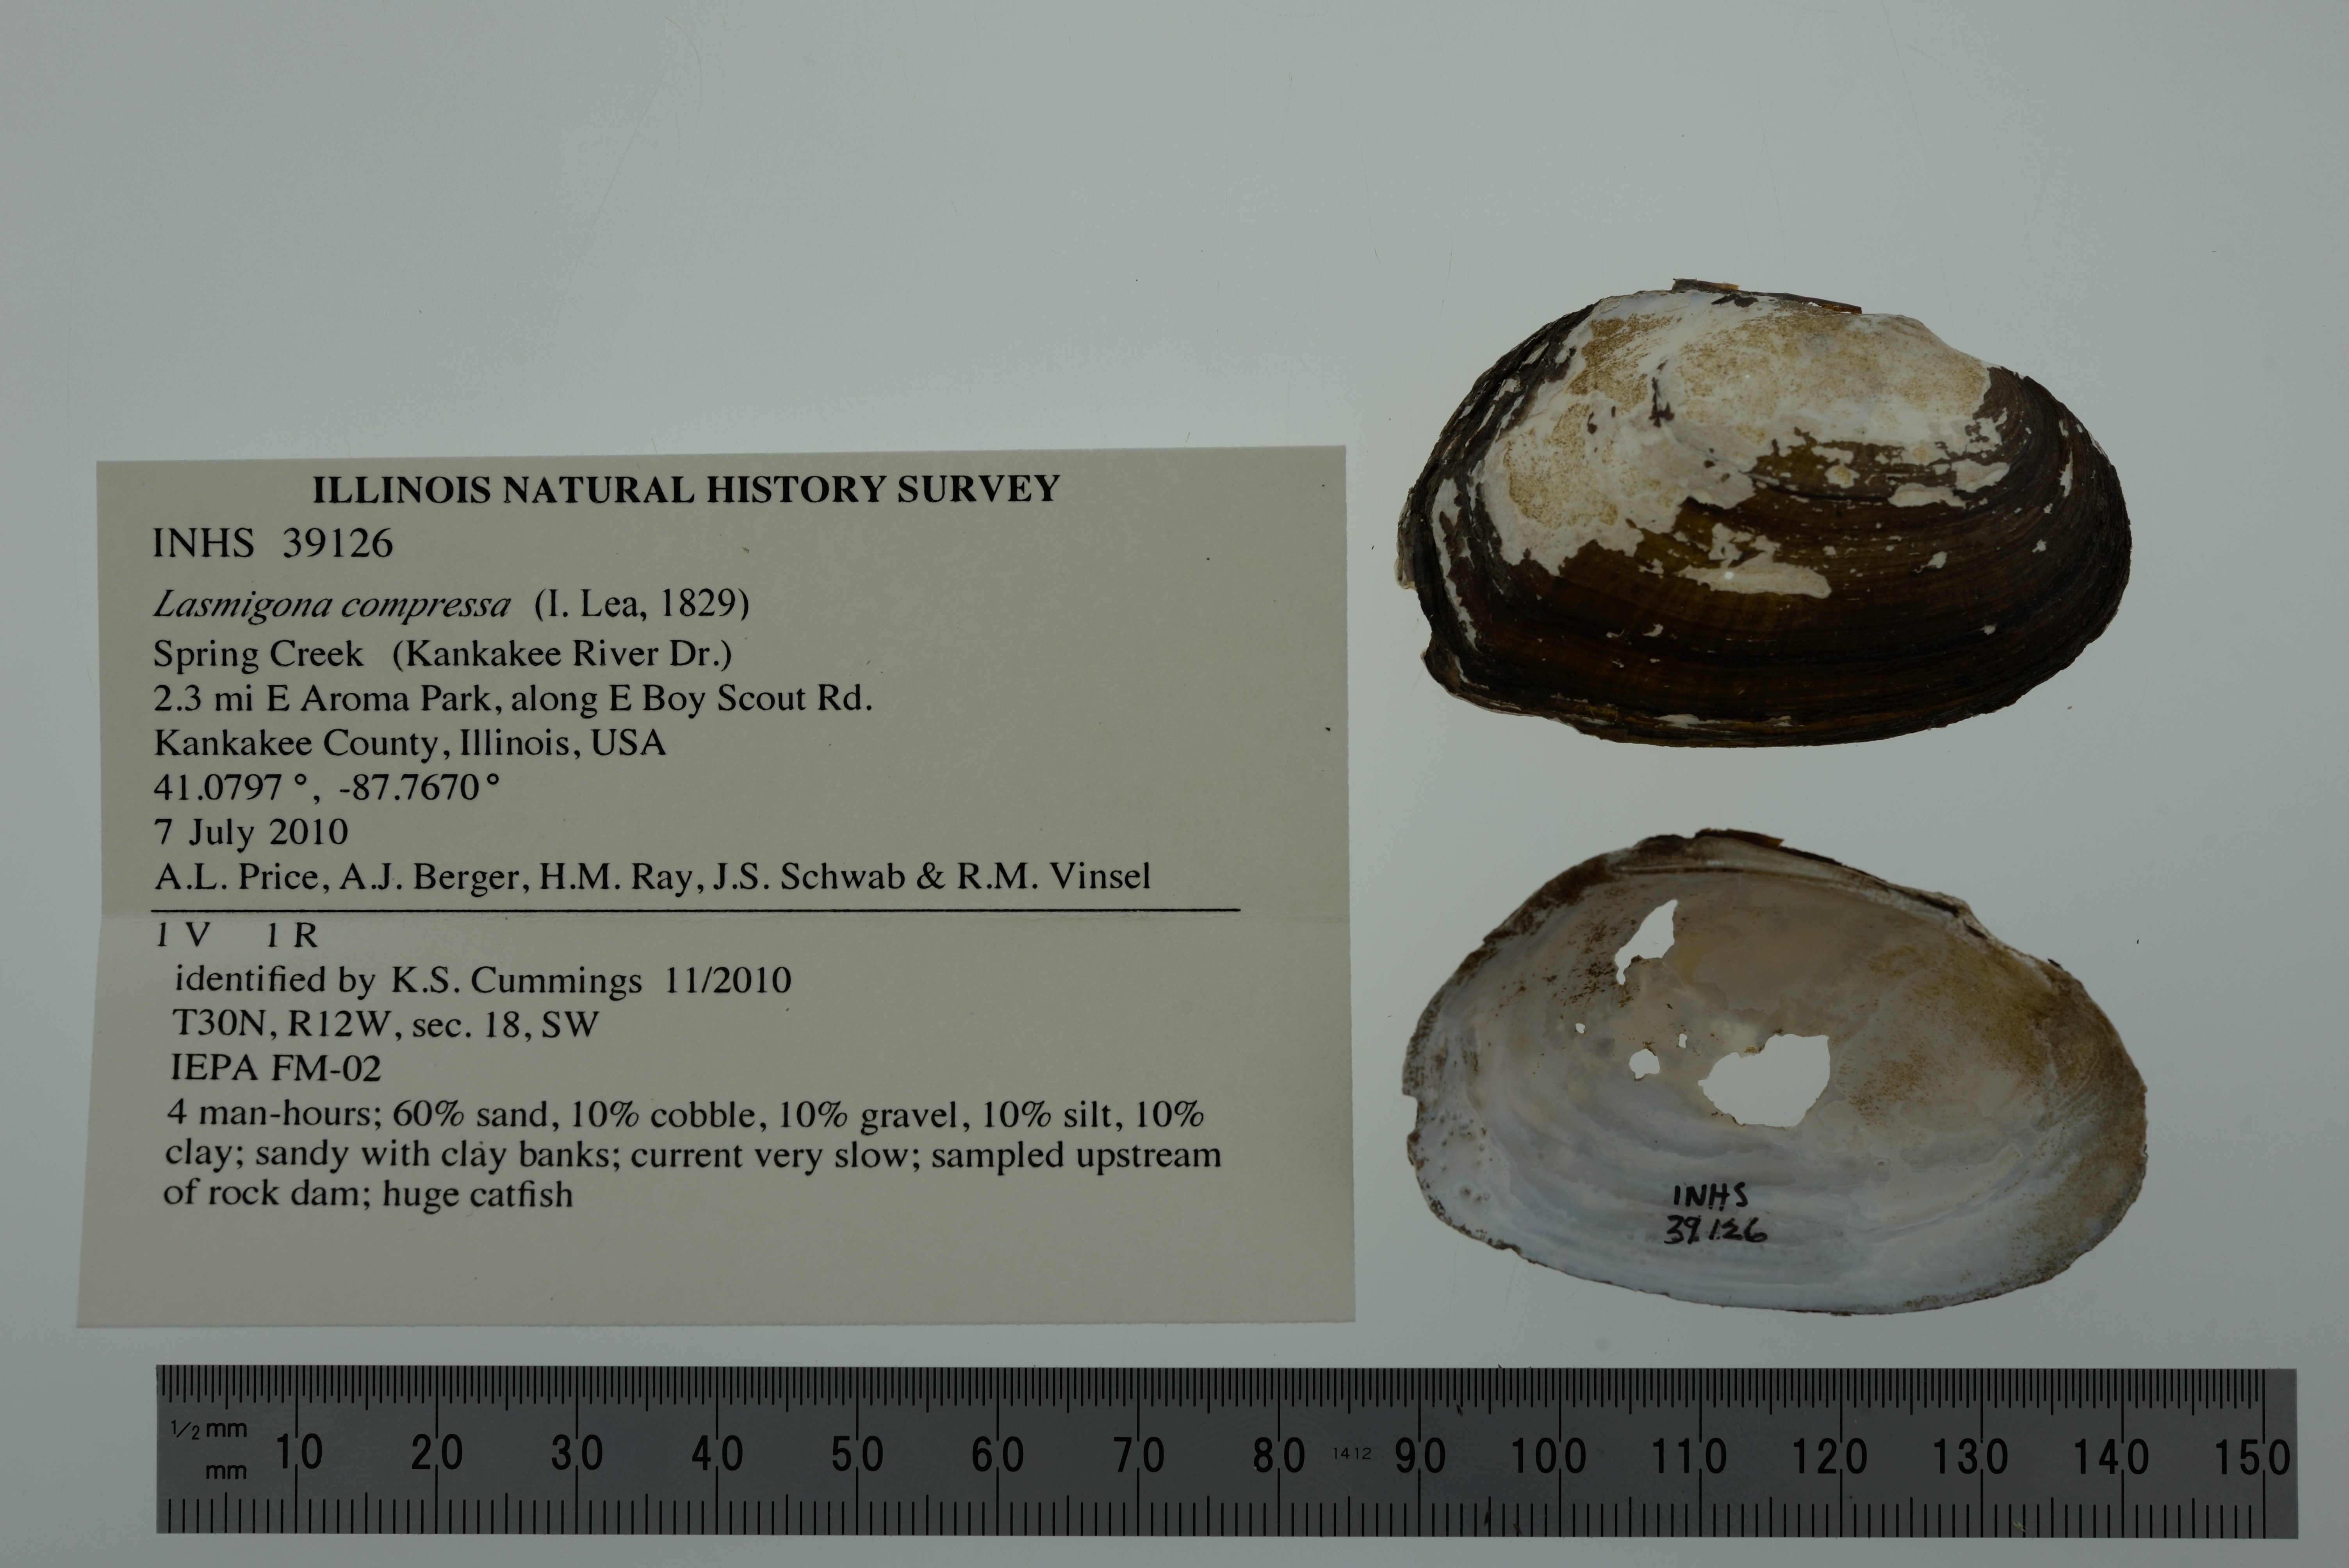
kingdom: Animalia
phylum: Mollusca
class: Bivalvia
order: Unionida
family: Unionidae
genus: Lasmigona
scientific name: Lasmigona compressa
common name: Creek heelsplitter
